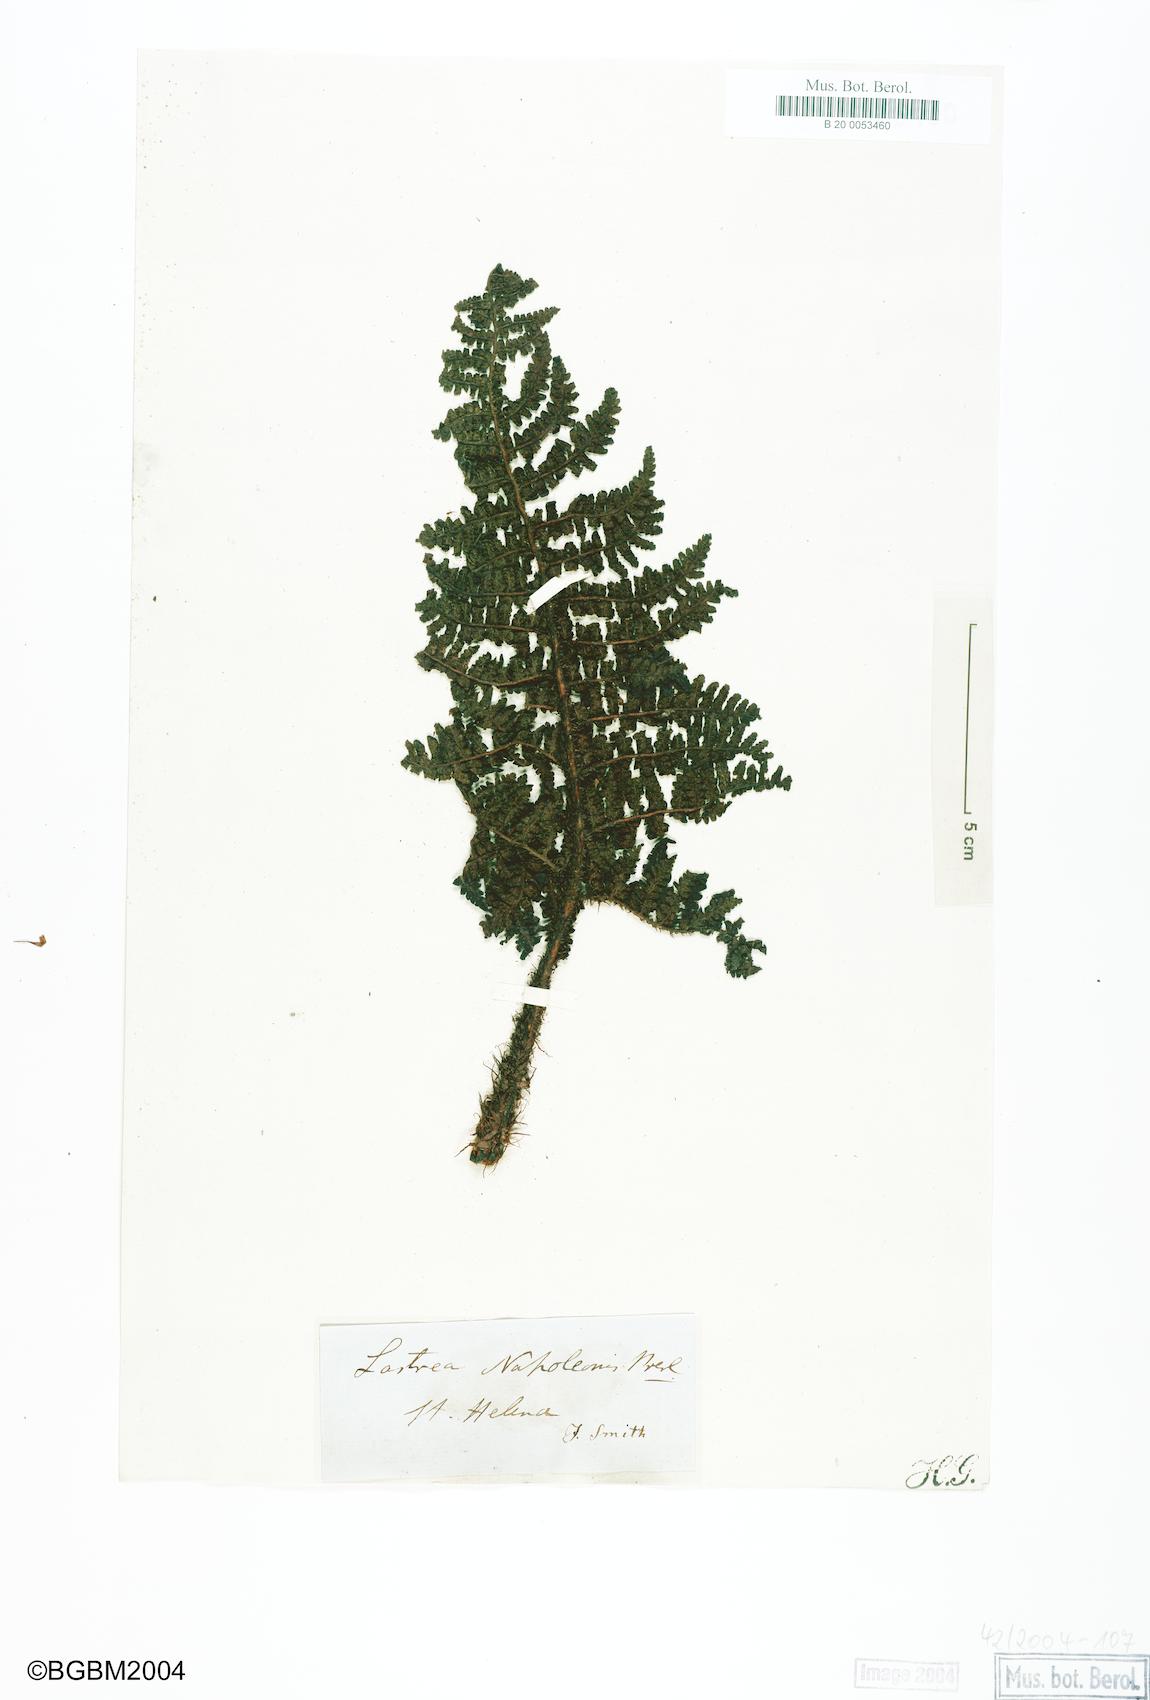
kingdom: Plantae
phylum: Tracheophyta
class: Polypodiopsida
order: Polypodiales
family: Dryopteridaceae
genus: Dryopteris
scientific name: Dryopteris cognata
